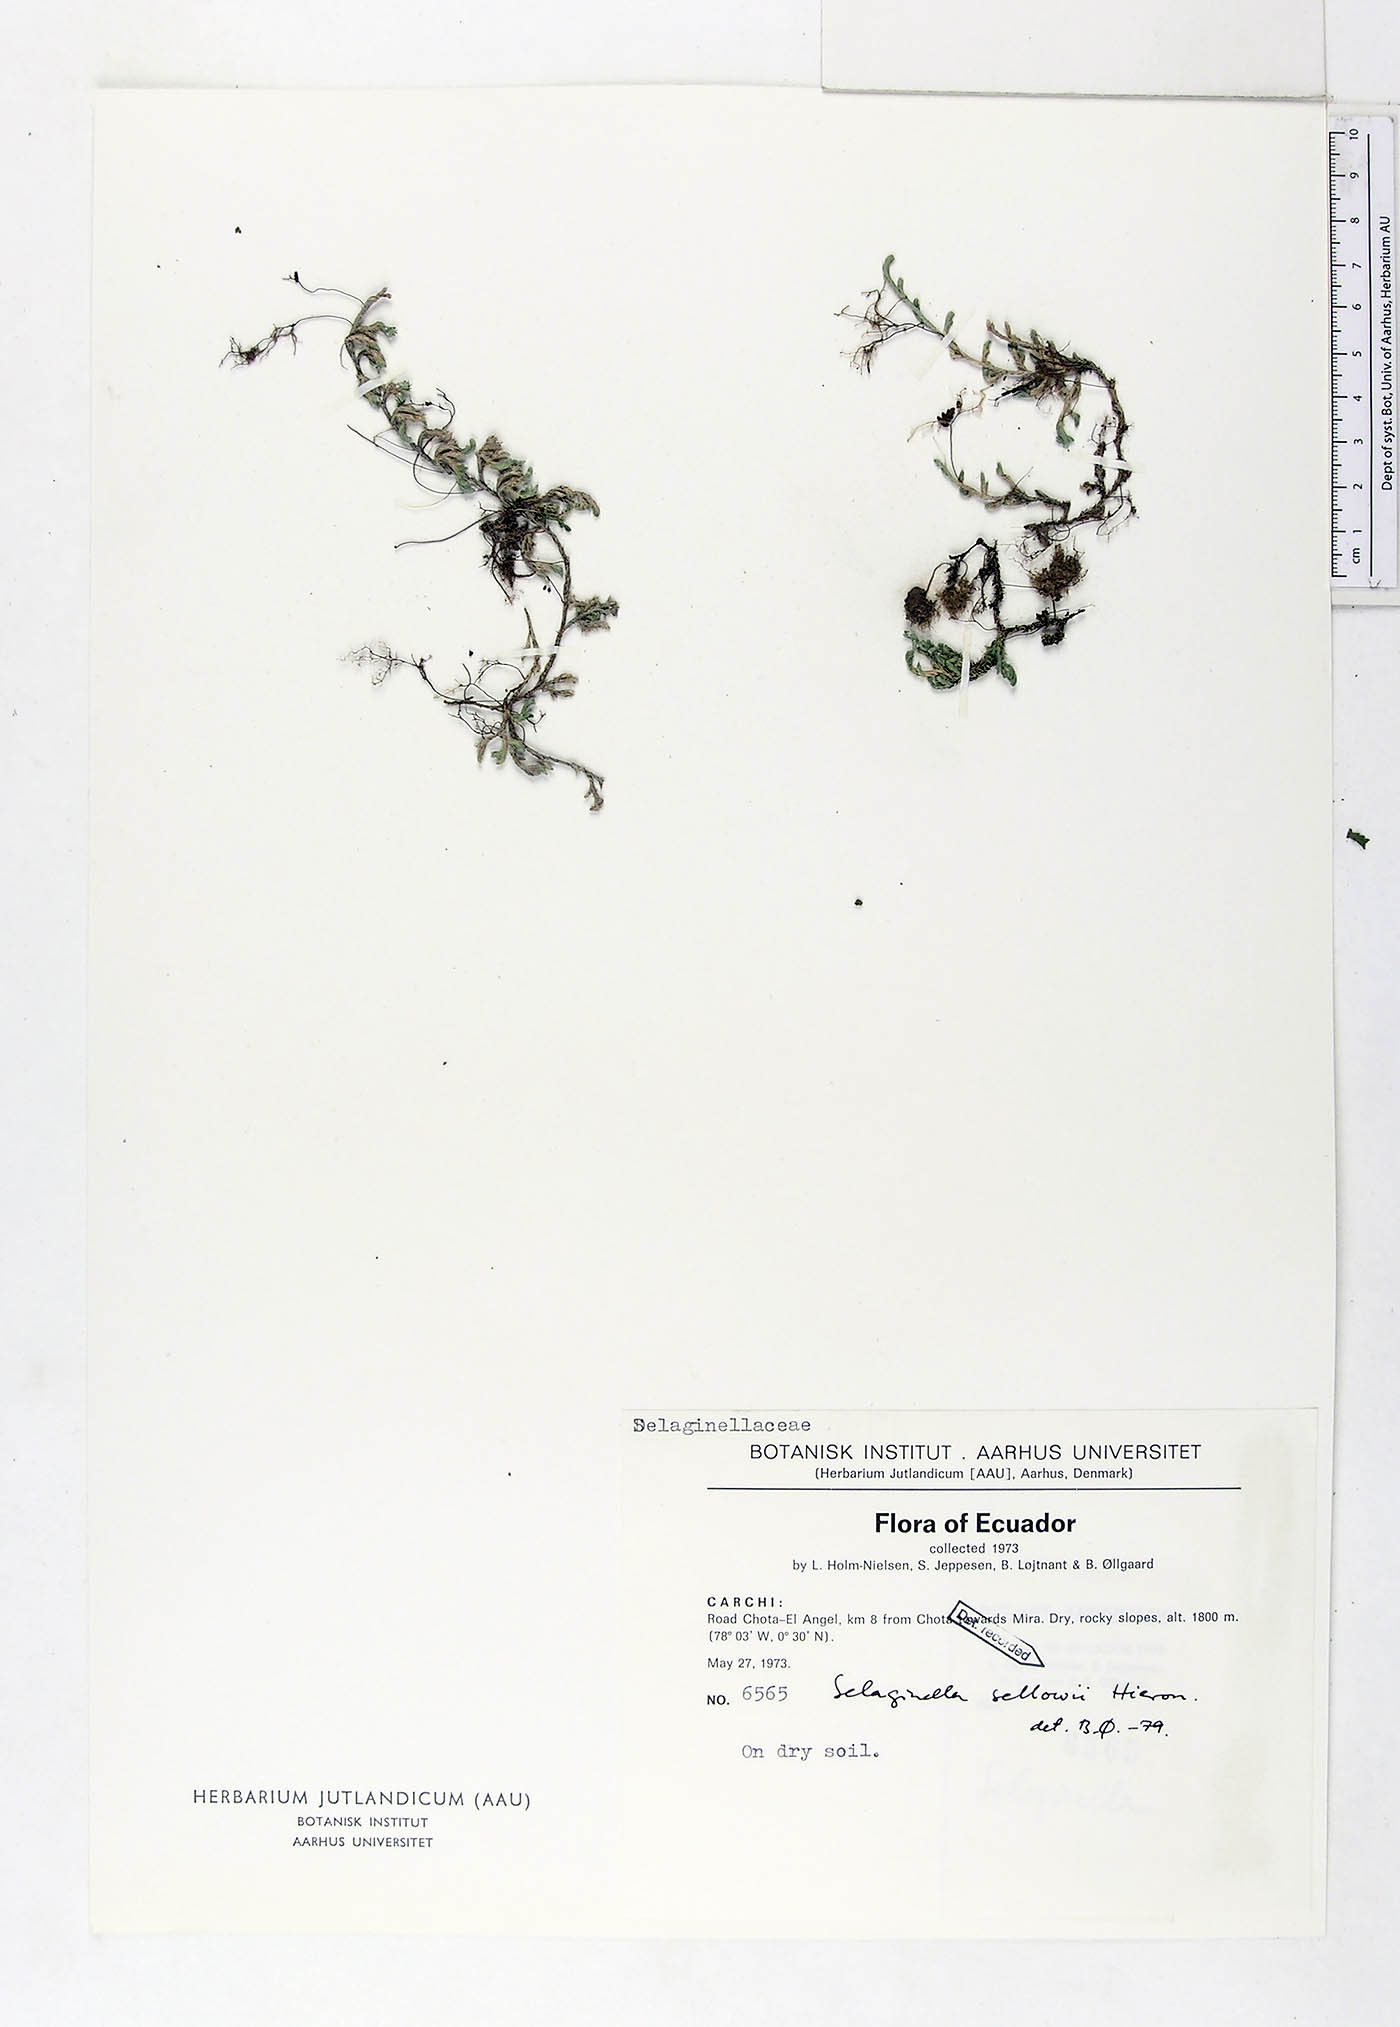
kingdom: Plantae
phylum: Tracheophyta
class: Lycopodiopsida
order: Selaginellales
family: Selaginellaceae
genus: Selaginella
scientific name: Selaginella sellowii
